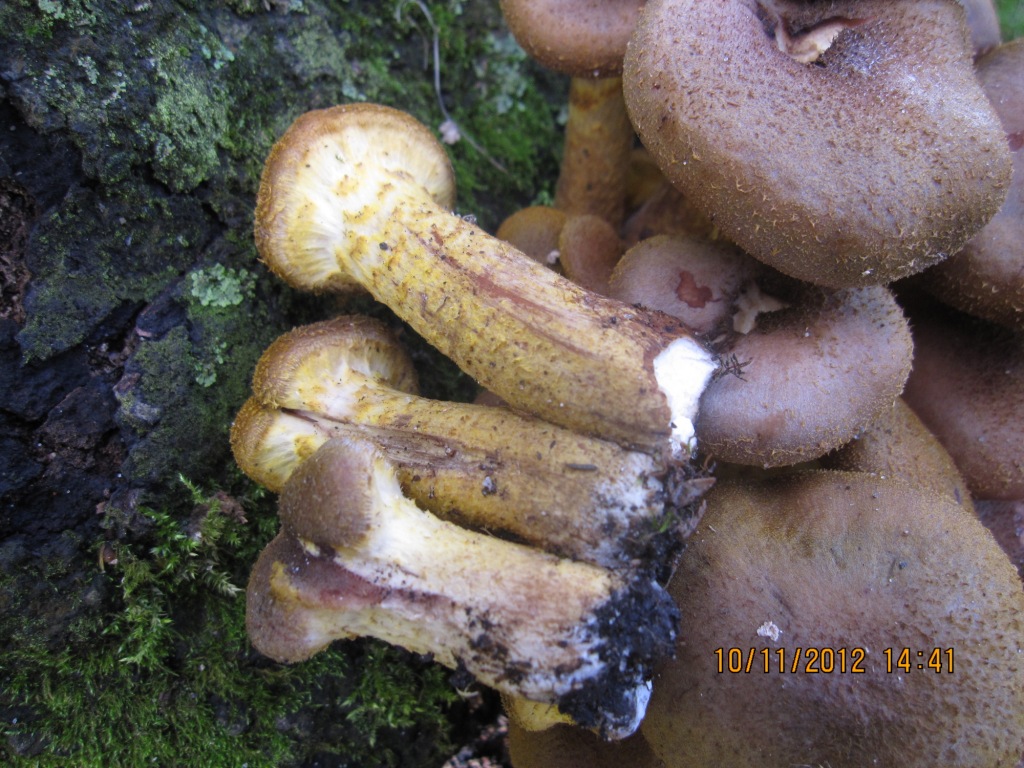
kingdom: Fungi
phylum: Basidiomycota
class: Agaricomycetes
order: Agaricales
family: Physalacriaceae
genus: Armillaria
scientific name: Armillaria lutea
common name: køllestokket honningsvamp
